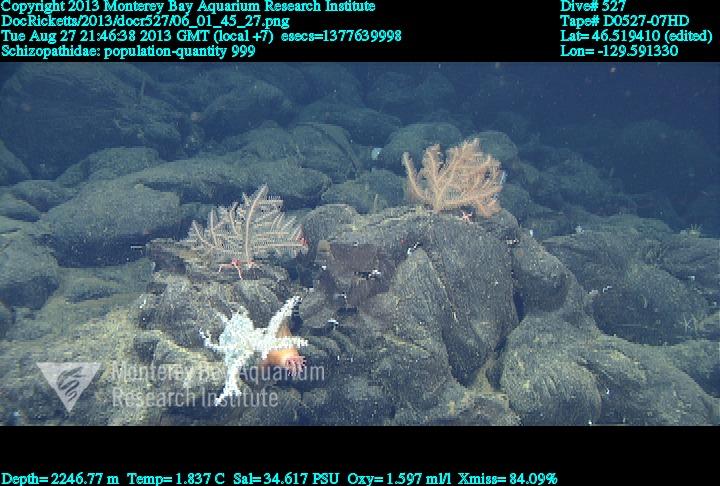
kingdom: Animalia
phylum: Cnidaria
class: Anthozoa
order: Antipatharia
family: Schizopathidae
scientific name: Schizopathidae
